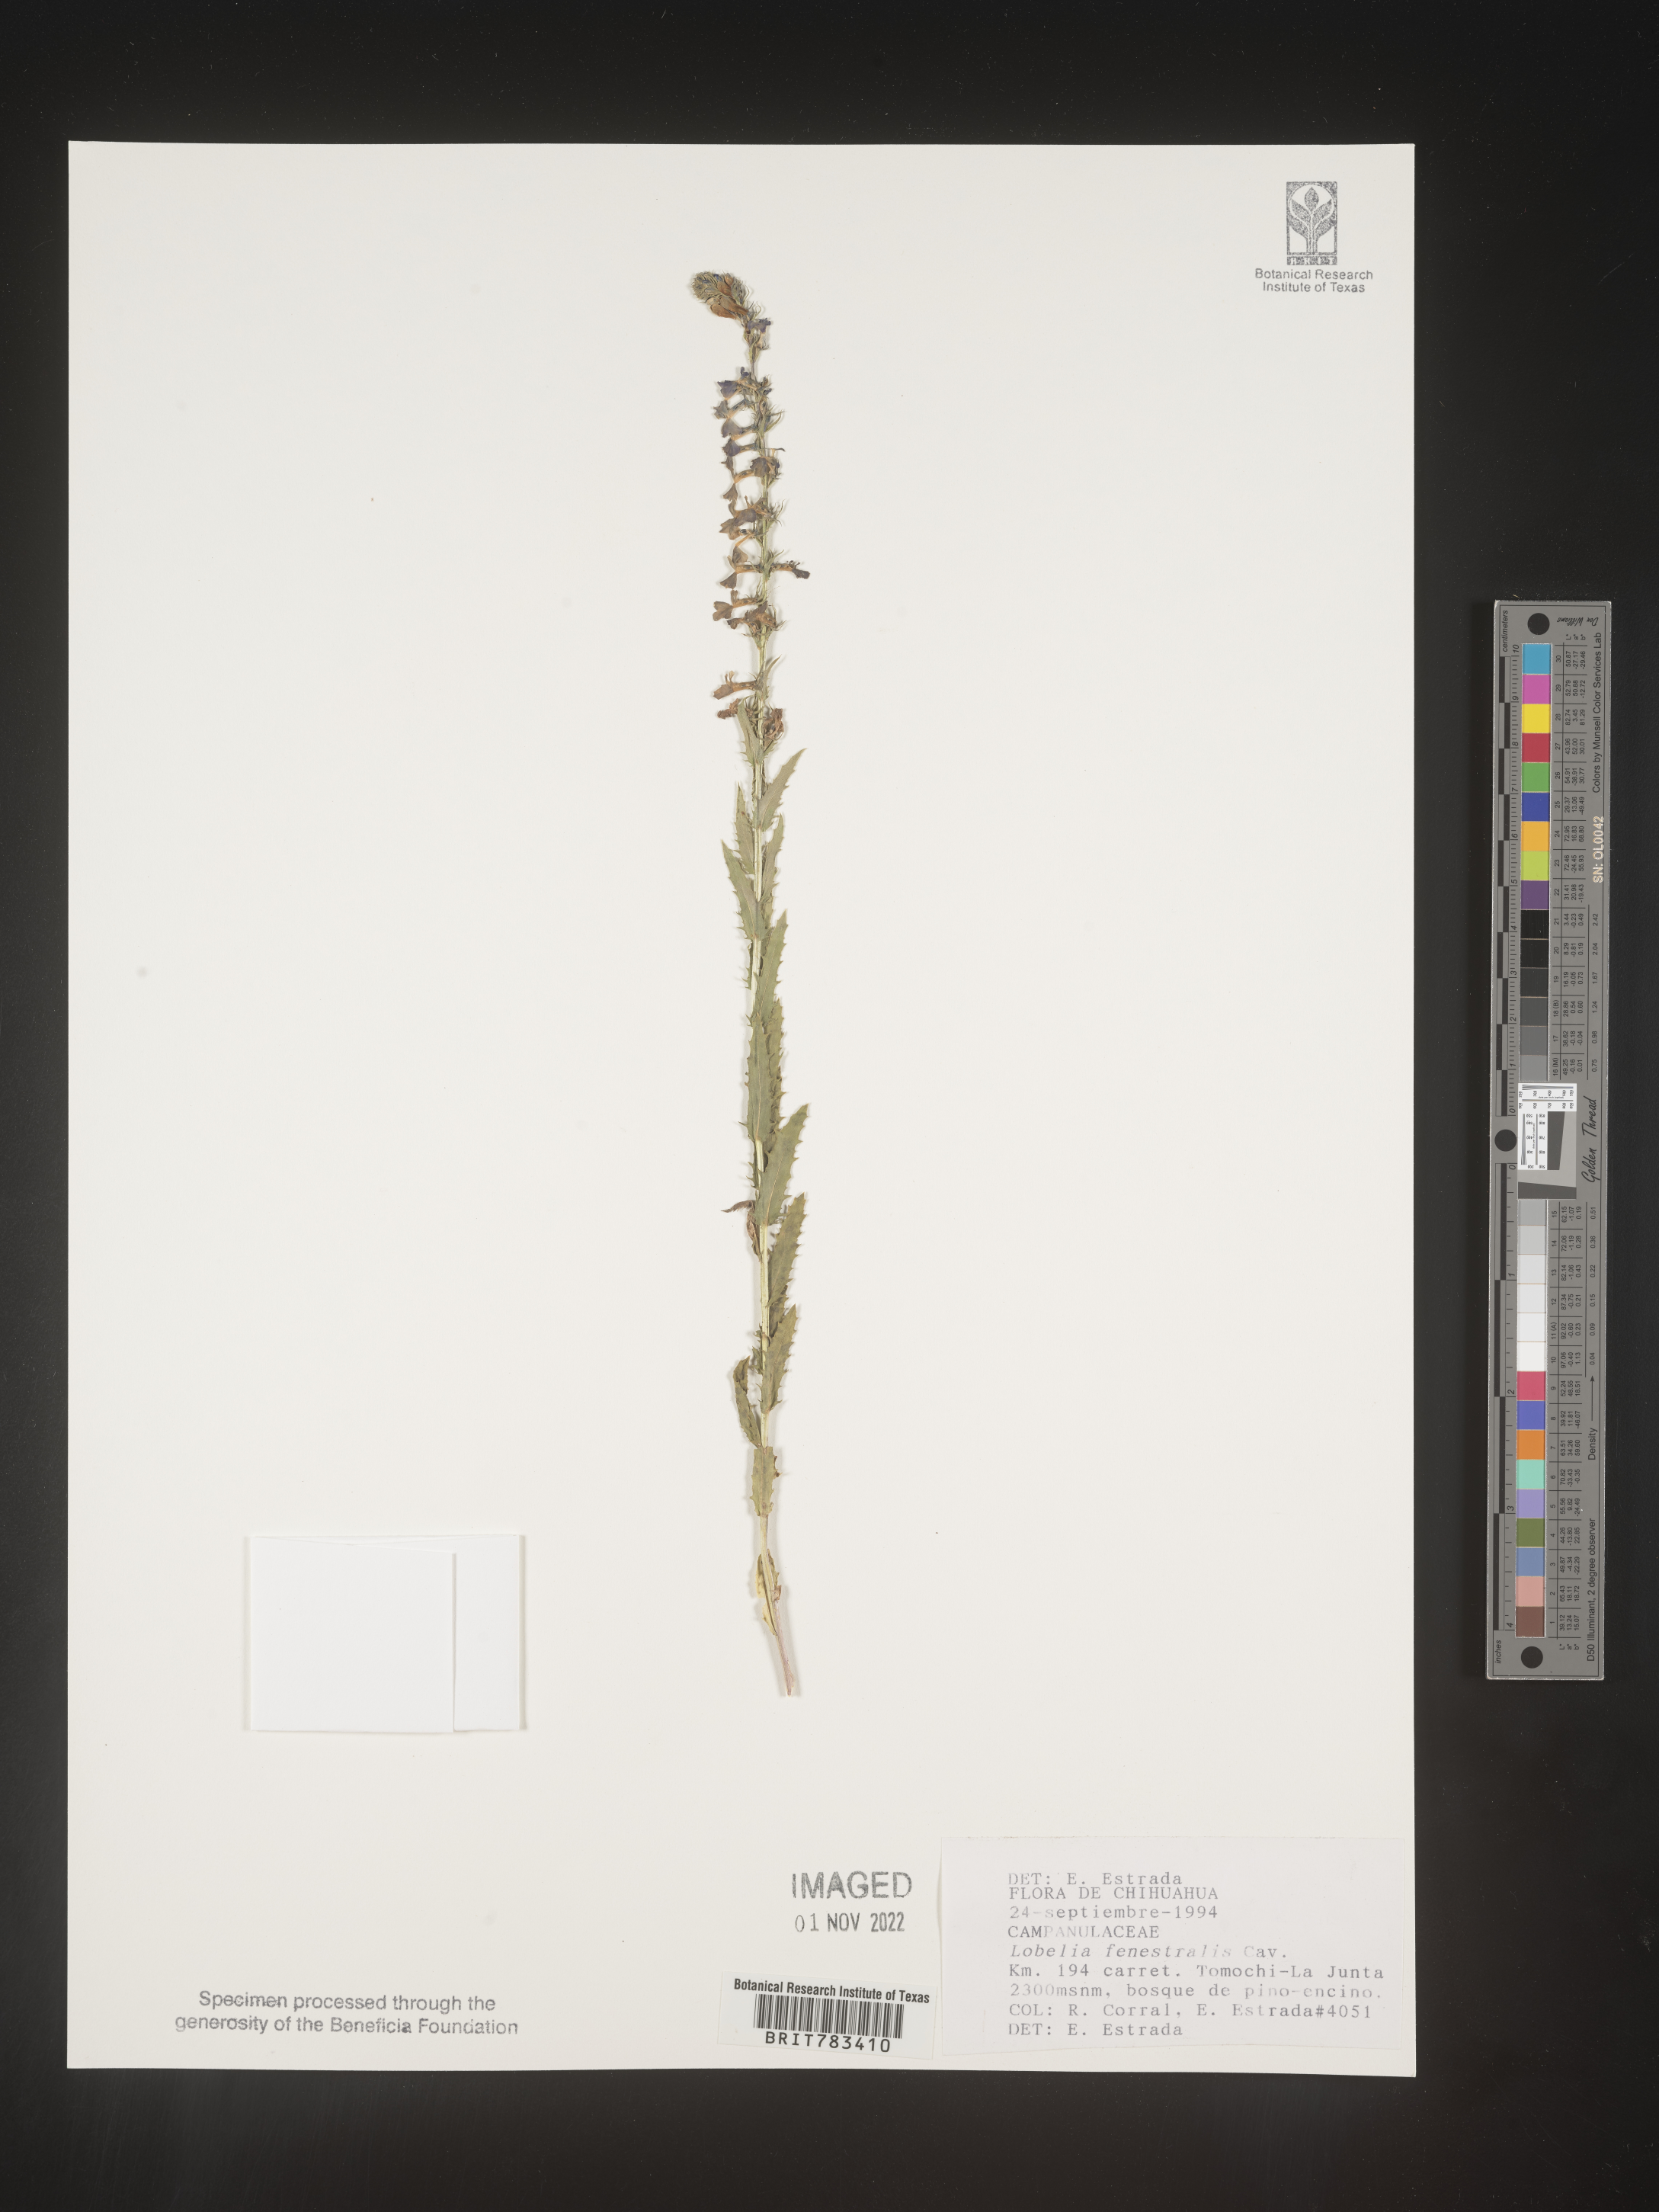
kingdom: Plantae
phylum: Tracheophyta
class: Magnoliopsida
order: Asterales
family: Campanulaceae
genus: Lobelia
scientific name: Lobelia
